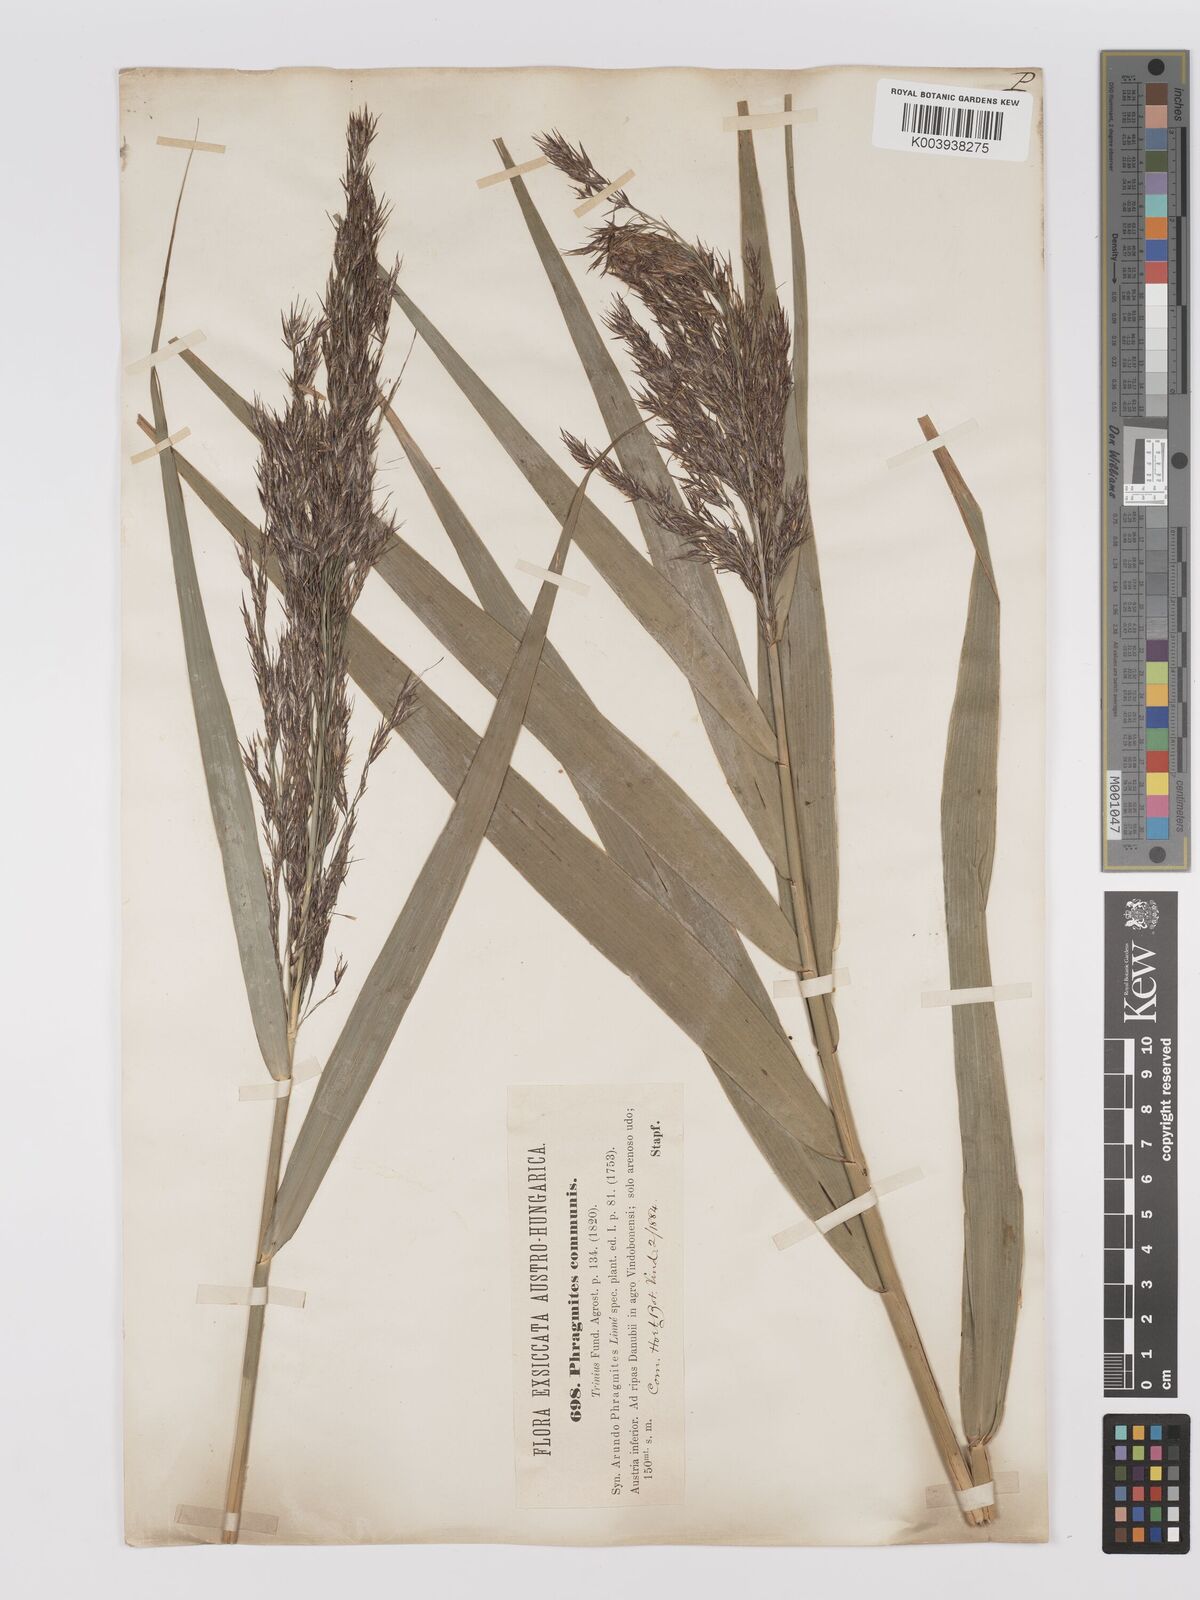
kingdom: Plantae
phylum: Tracheophyta
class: Liliopsida
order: Poales
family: Poaceae
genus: Phragmites
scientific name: Phragmites australis
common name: Common reed
